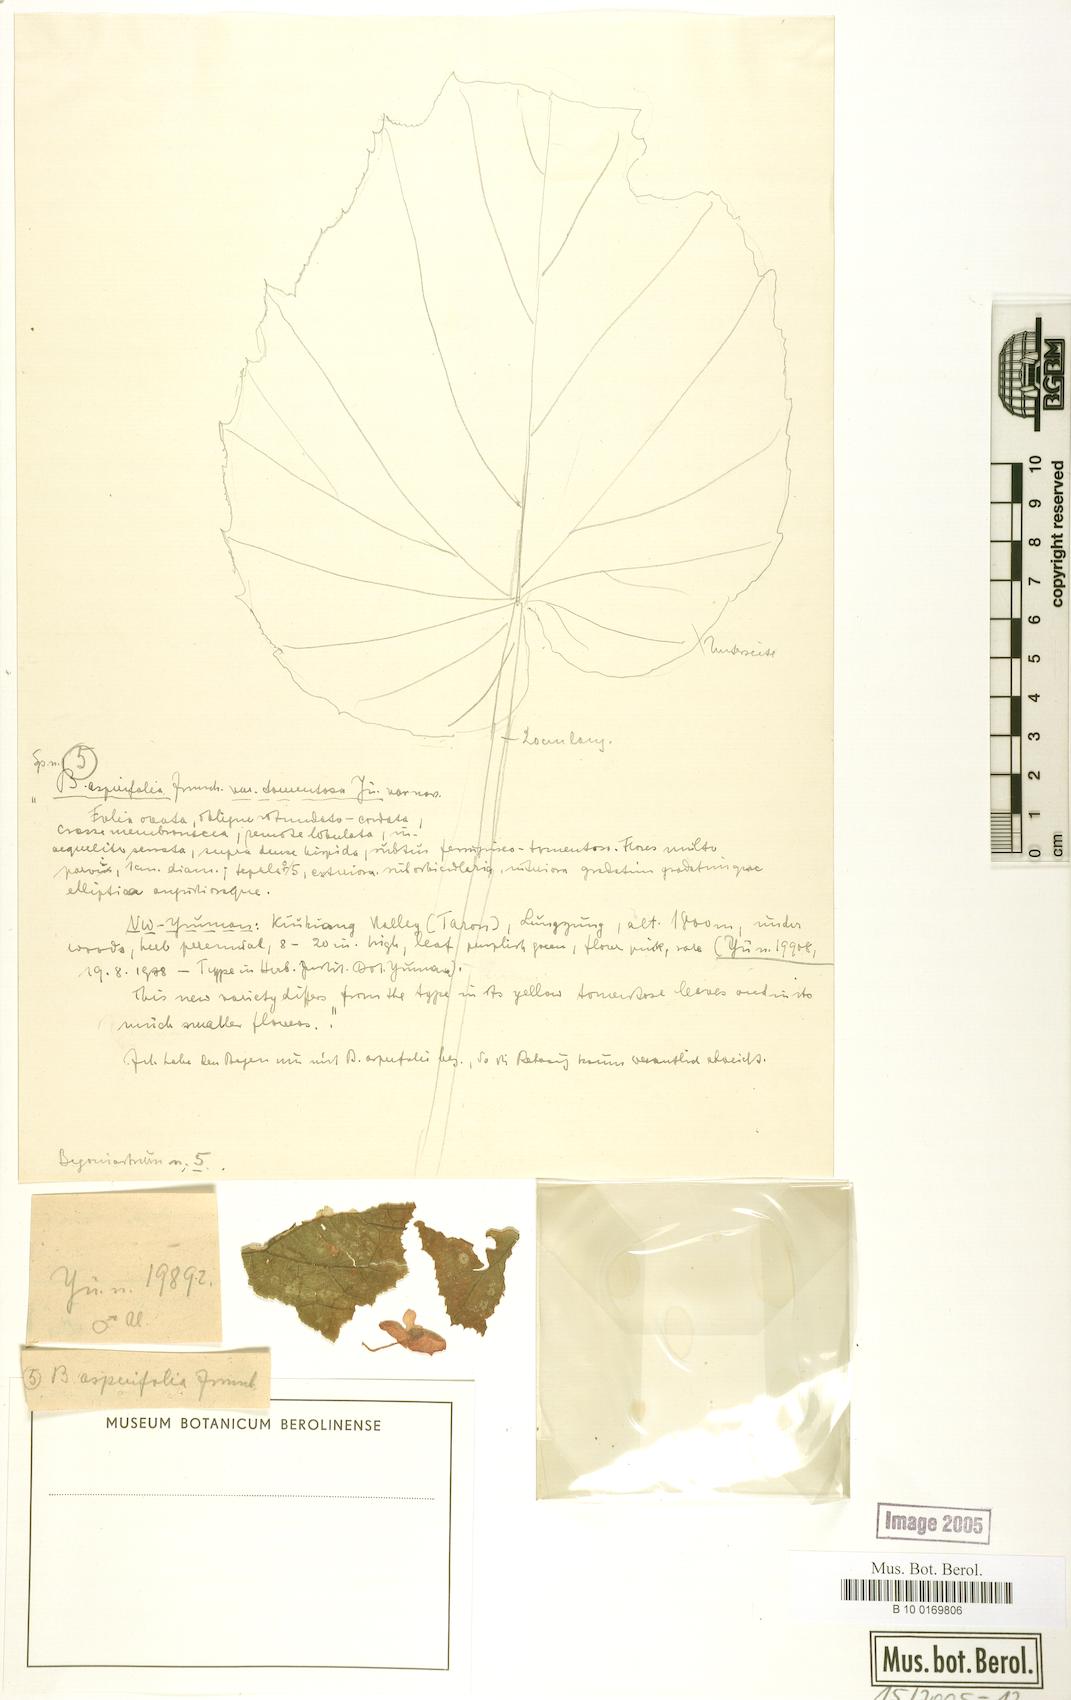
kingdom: Plantae
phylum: Tracheophyta
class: Magnoliopsida
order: Cucurbitales
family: Begoniaceae
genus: Begonia
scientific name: Begonia asperifolia
